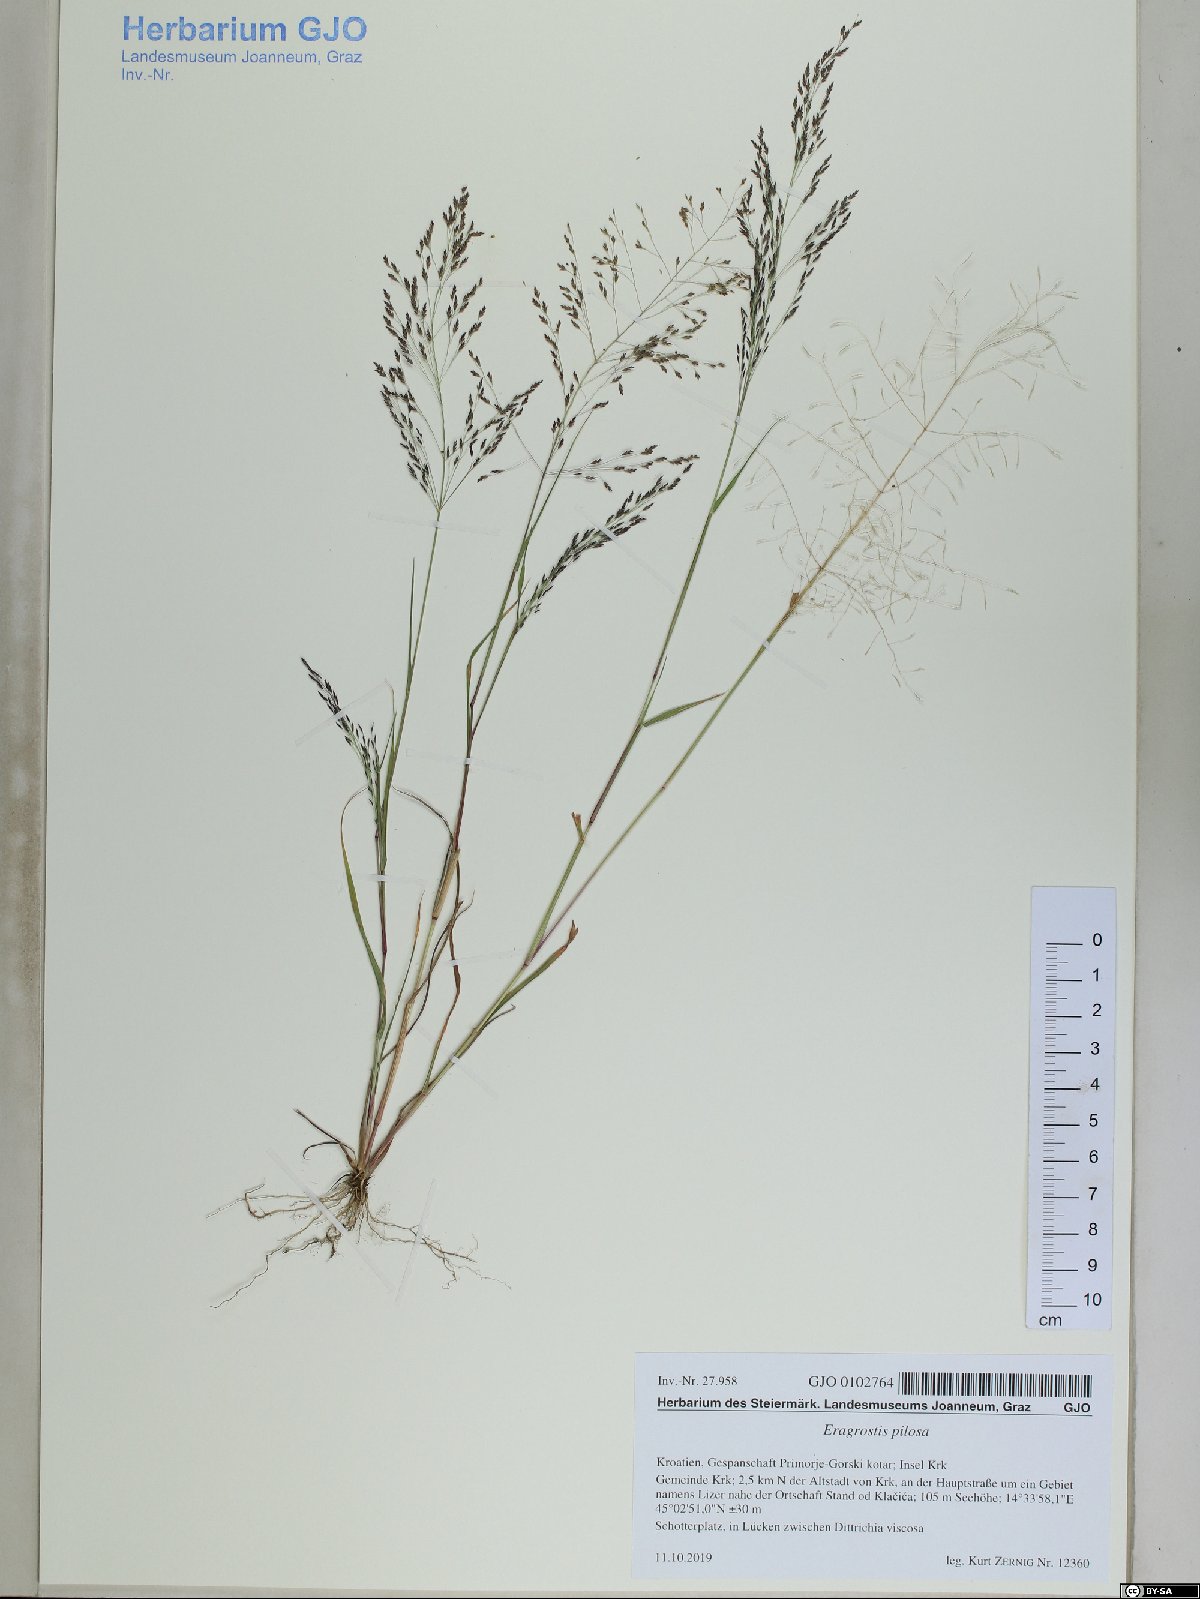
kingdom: Plantae
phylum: Tracheophyta
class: Liliopsida
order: Poales
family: Poaceae
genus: Eragrostis
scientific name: Eragrostis pilosa
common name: Indian lovegrass
